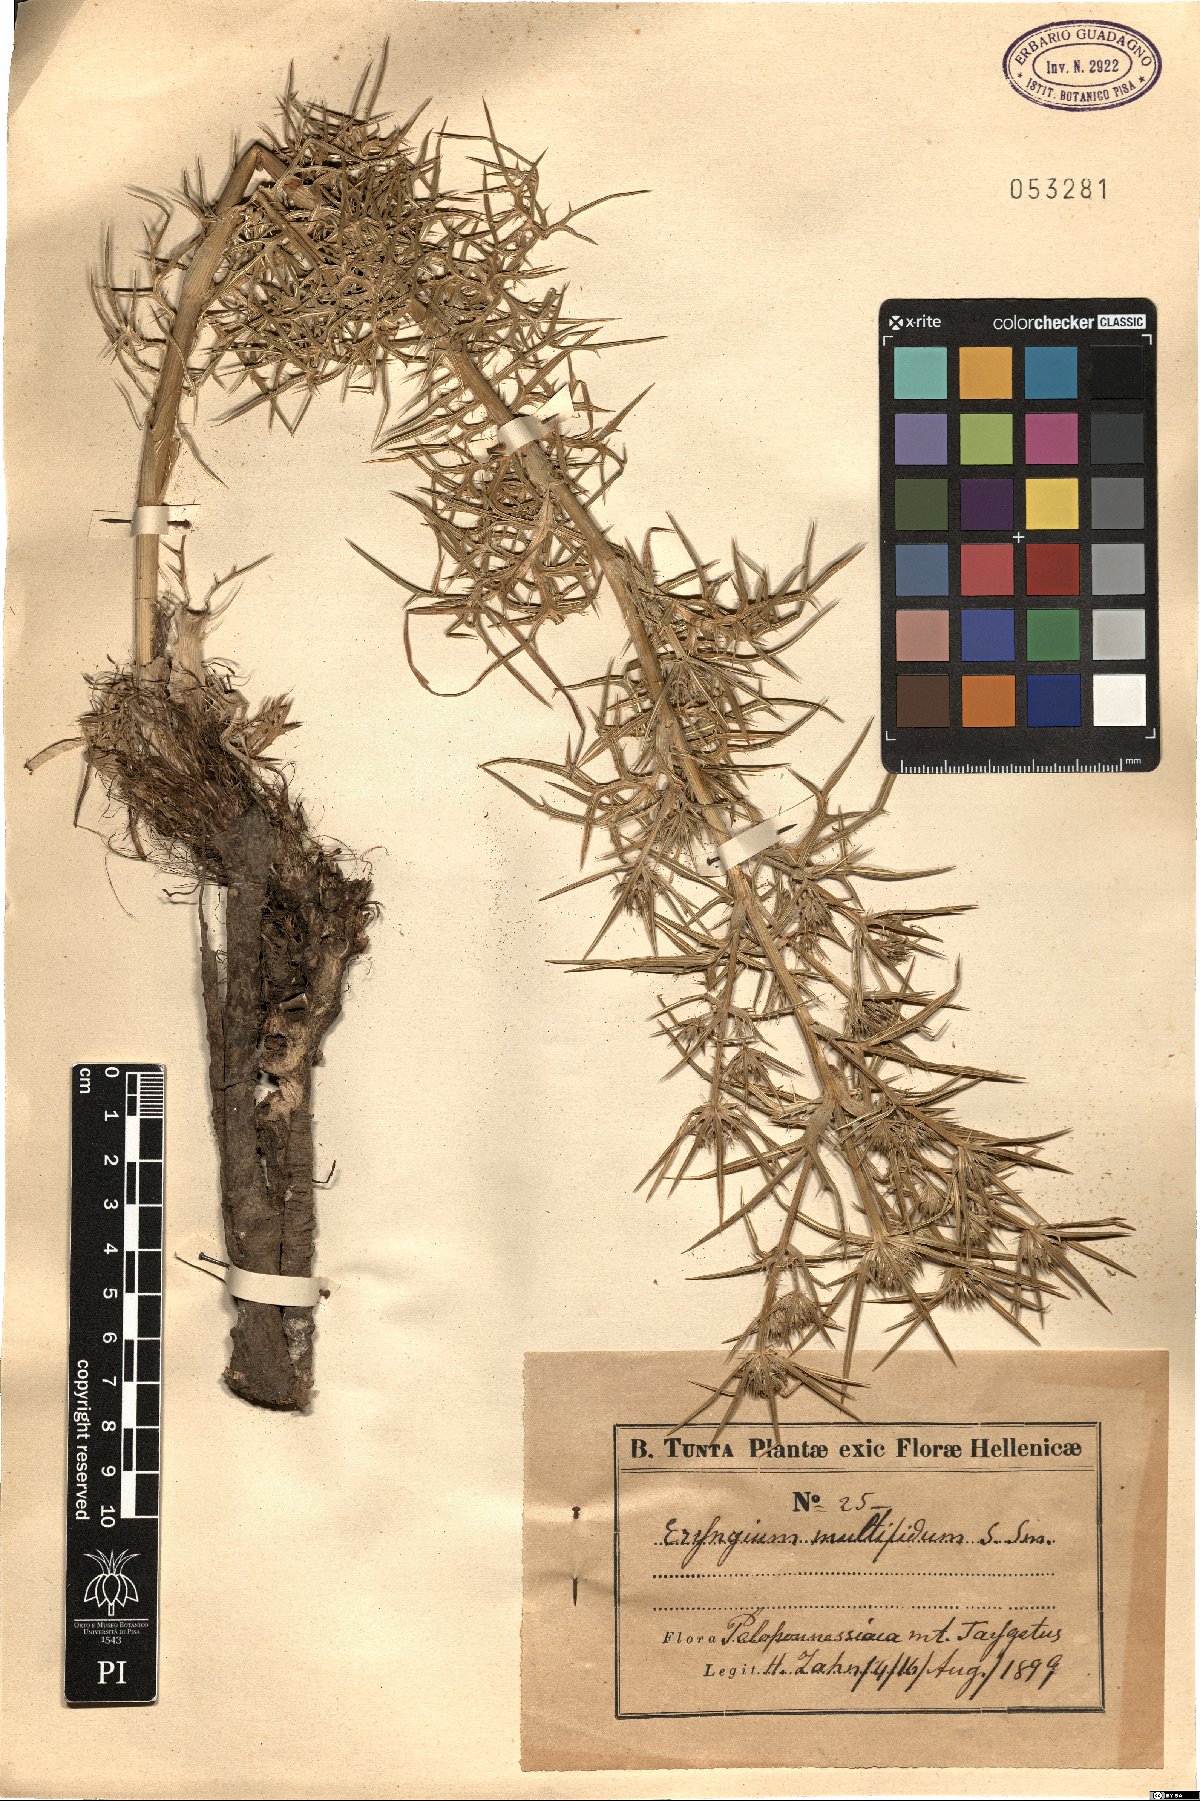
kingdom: Plantae
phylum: Tracheophyta
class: Magnoliopsida
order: Apiales
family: Apiaceae
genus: Eryngium
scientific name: Eryngium amethystinum
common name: Amethyst eryngo
